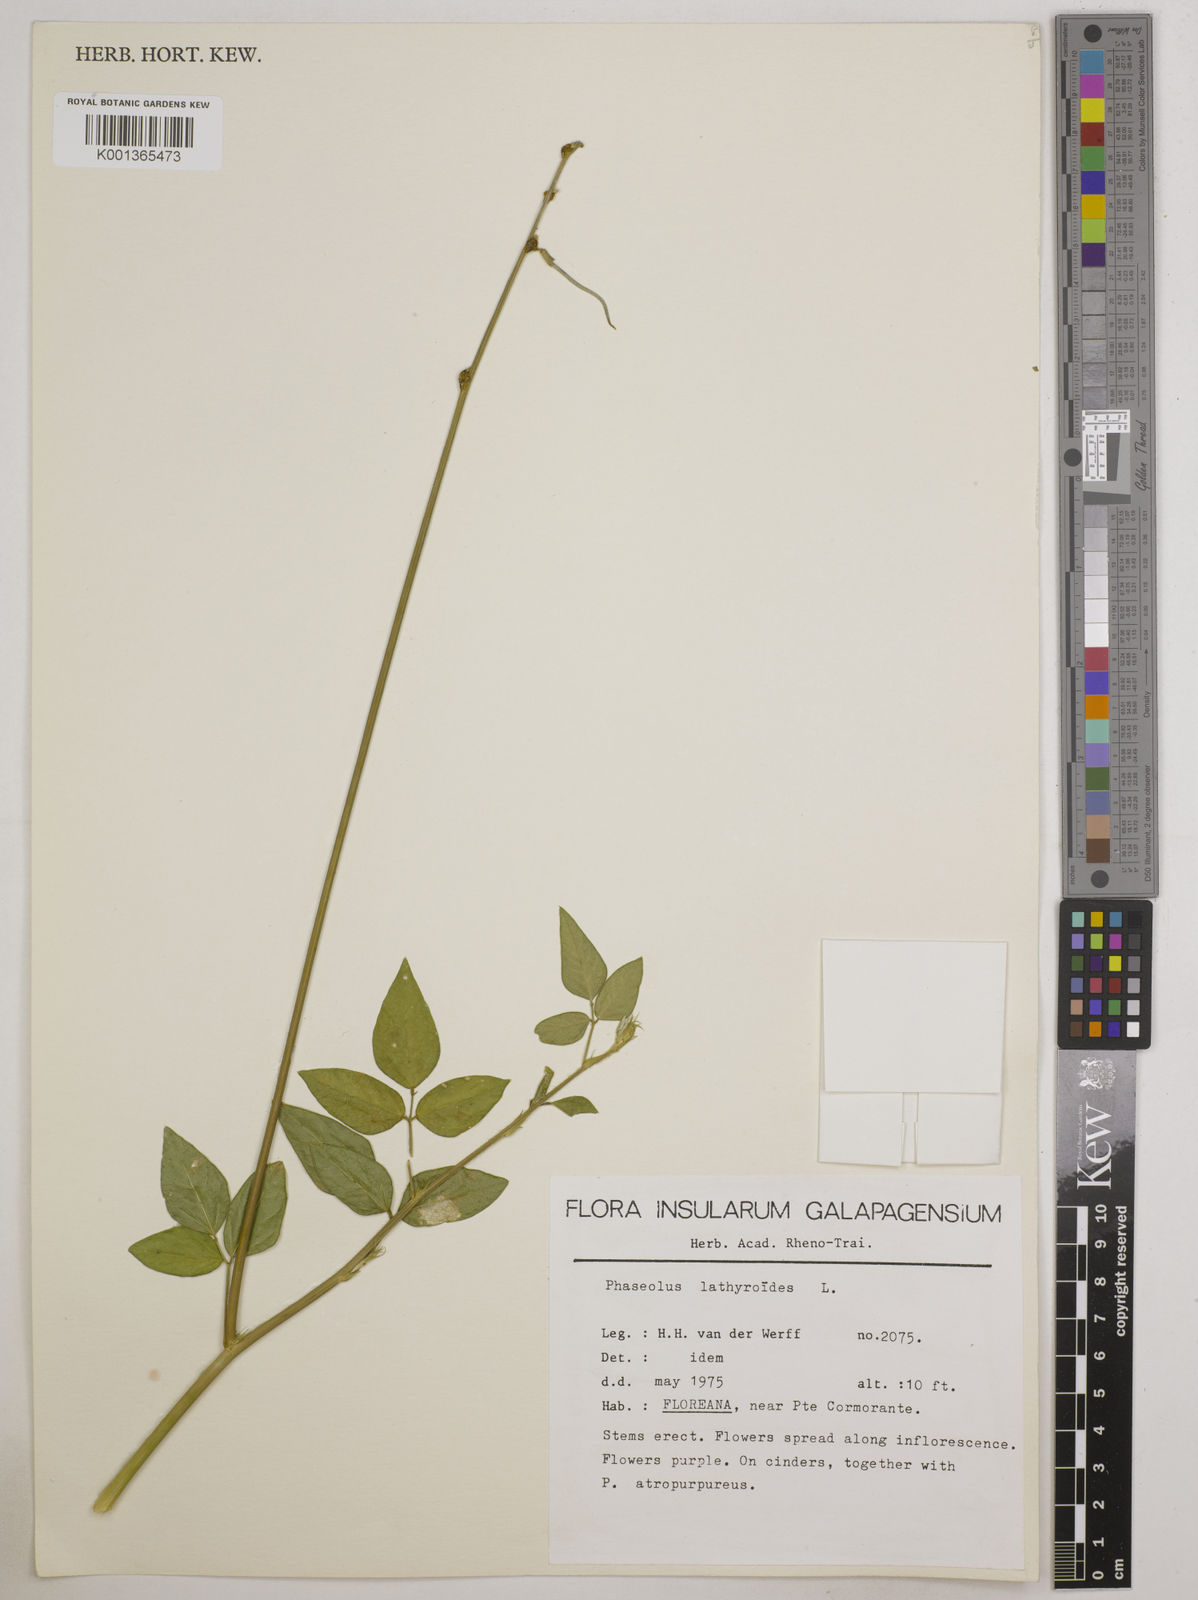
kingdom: Plantae
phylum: Tracheophyta
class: Magnoliopsida
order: Fabales
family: Fabaceae
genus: Macroptilium
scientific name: Macroptilium lathyroides
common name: Wild bushbean
